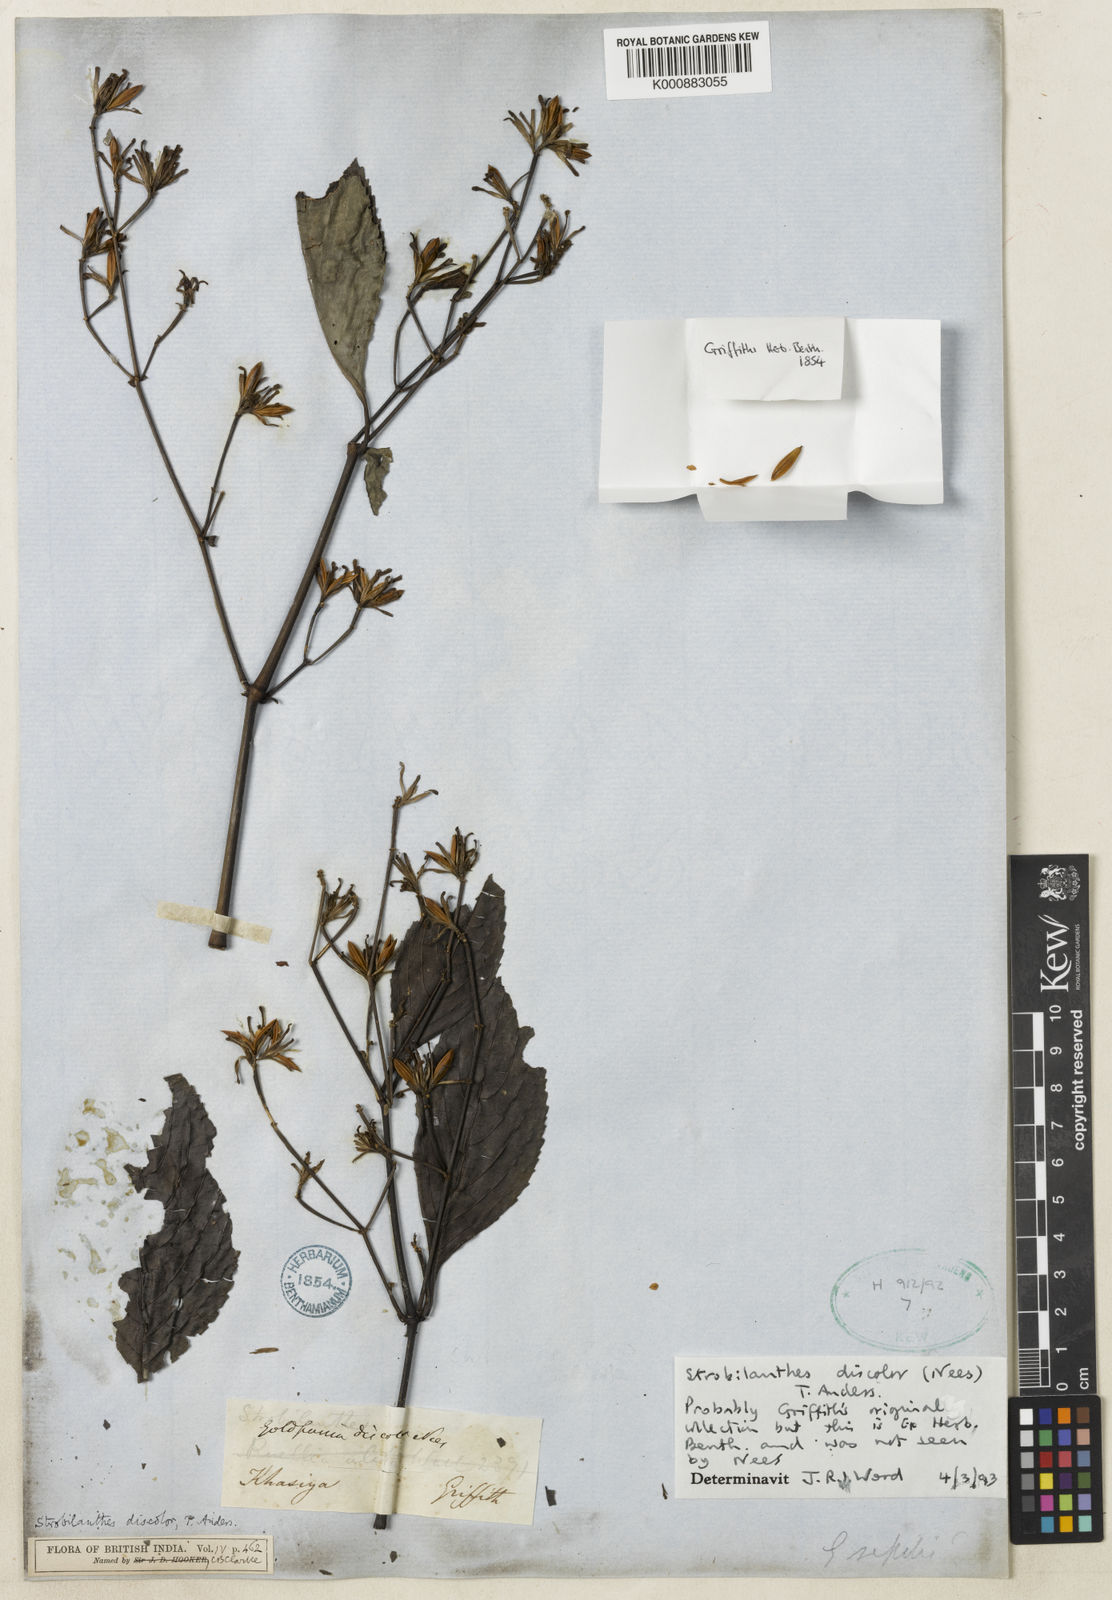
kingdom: Plantae
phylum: Tracheophyta
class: Magnoliopsida
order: Lamiales
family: Acanthaceae
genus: Strobilanthes
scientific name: Strobilanthes discolor
